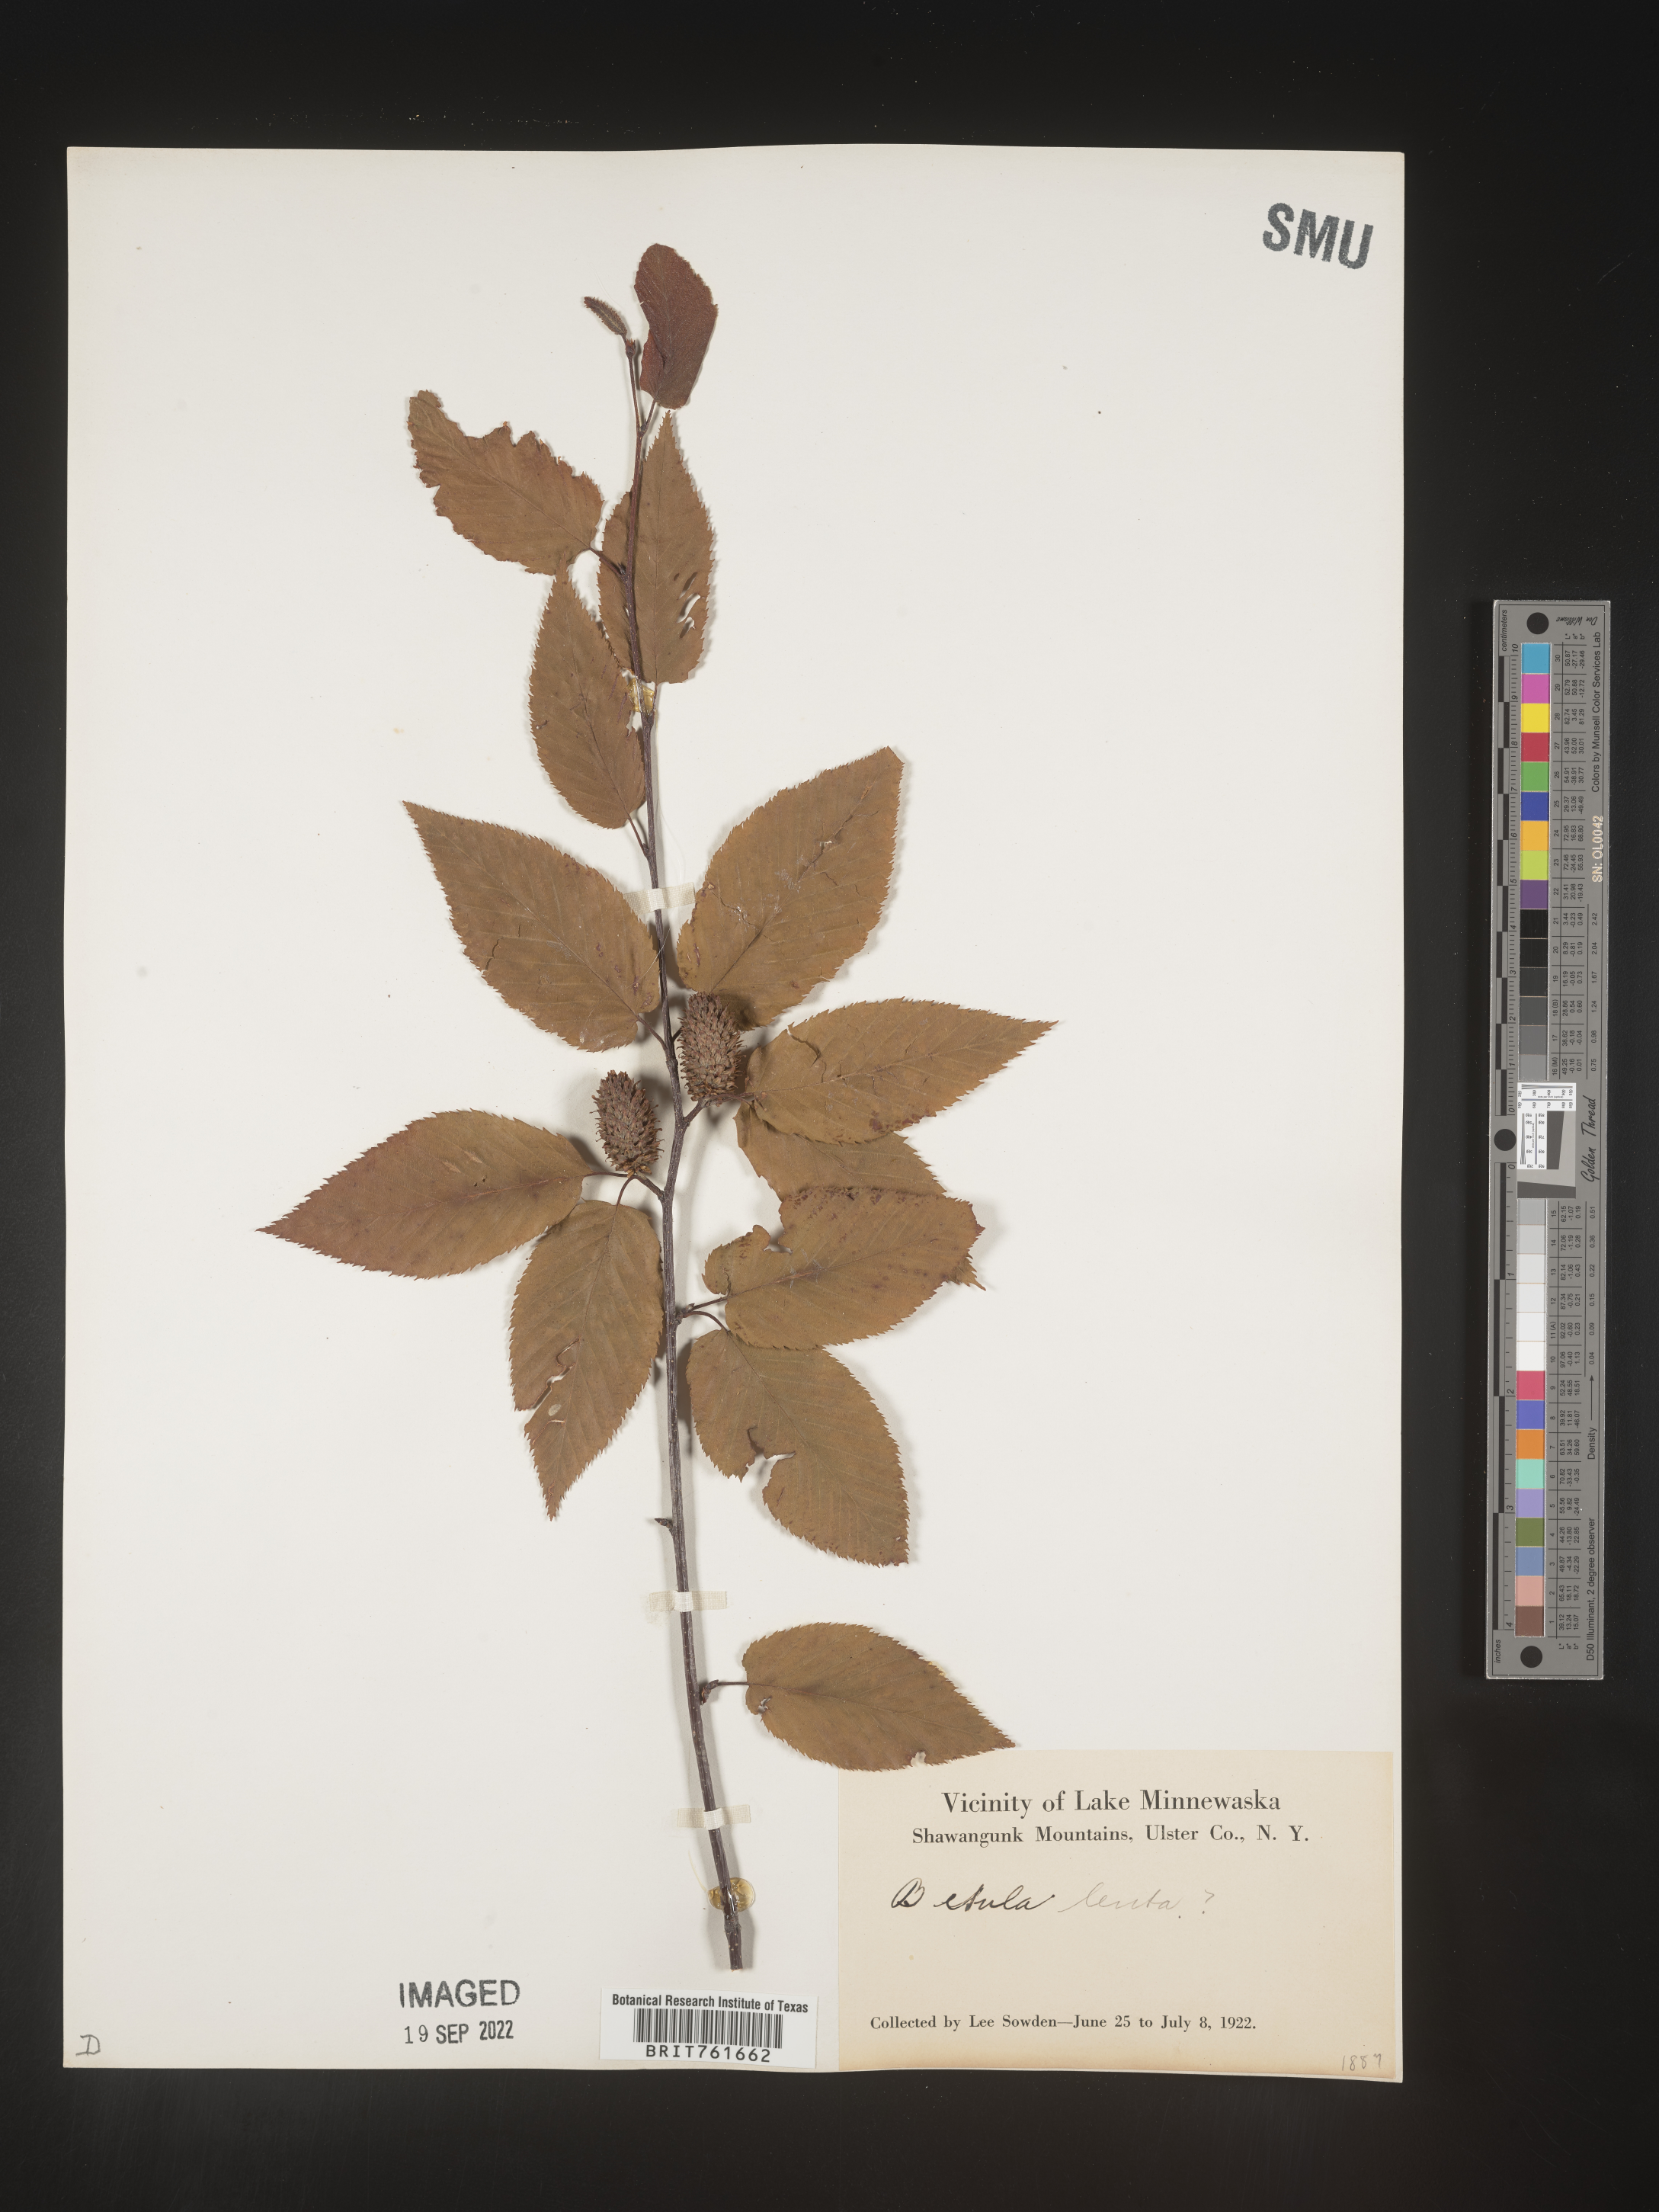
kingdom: Plantae
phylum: Tracheophyta
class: Magnoliopsida
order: Fagales
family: Betulaceae
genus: Betula
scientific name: Betula lenta
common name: Black birch
